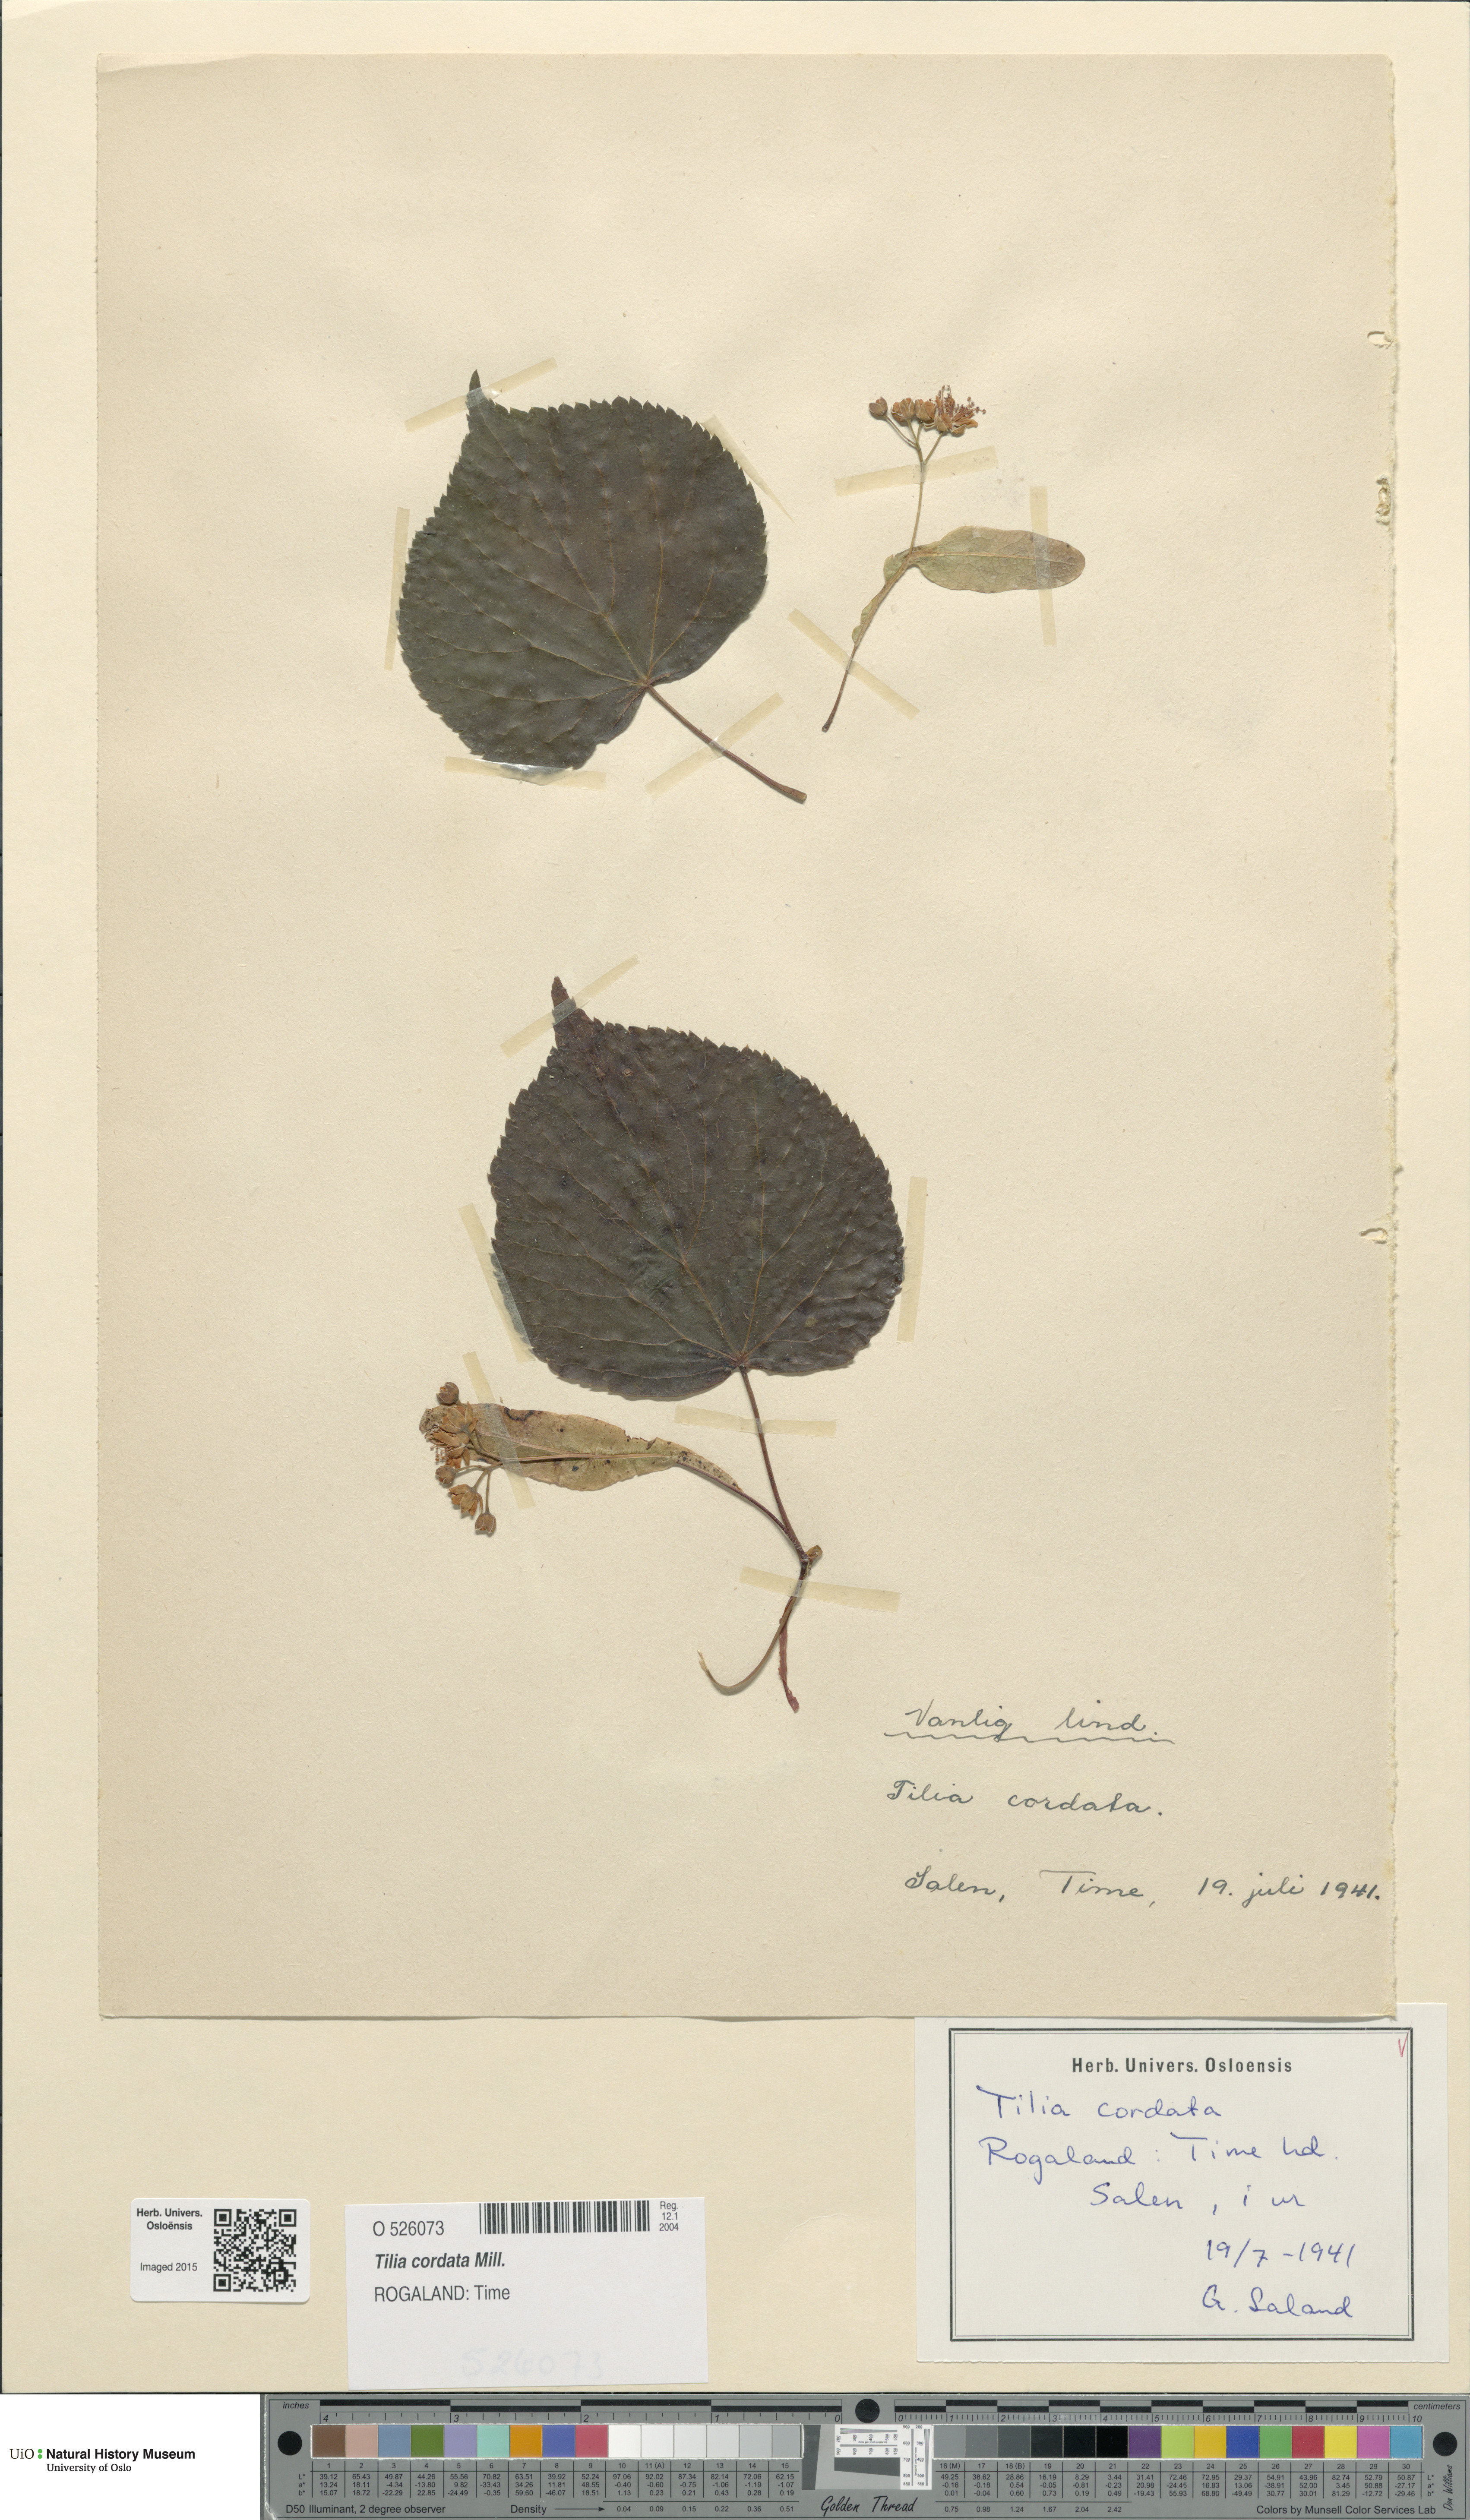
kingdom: Plantae
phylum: Tracheophyta
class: Magnoliopsida
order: Malvales
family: Malvaceae
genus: Tilia
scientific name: Tilia cordata
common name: Small-leaved lime
